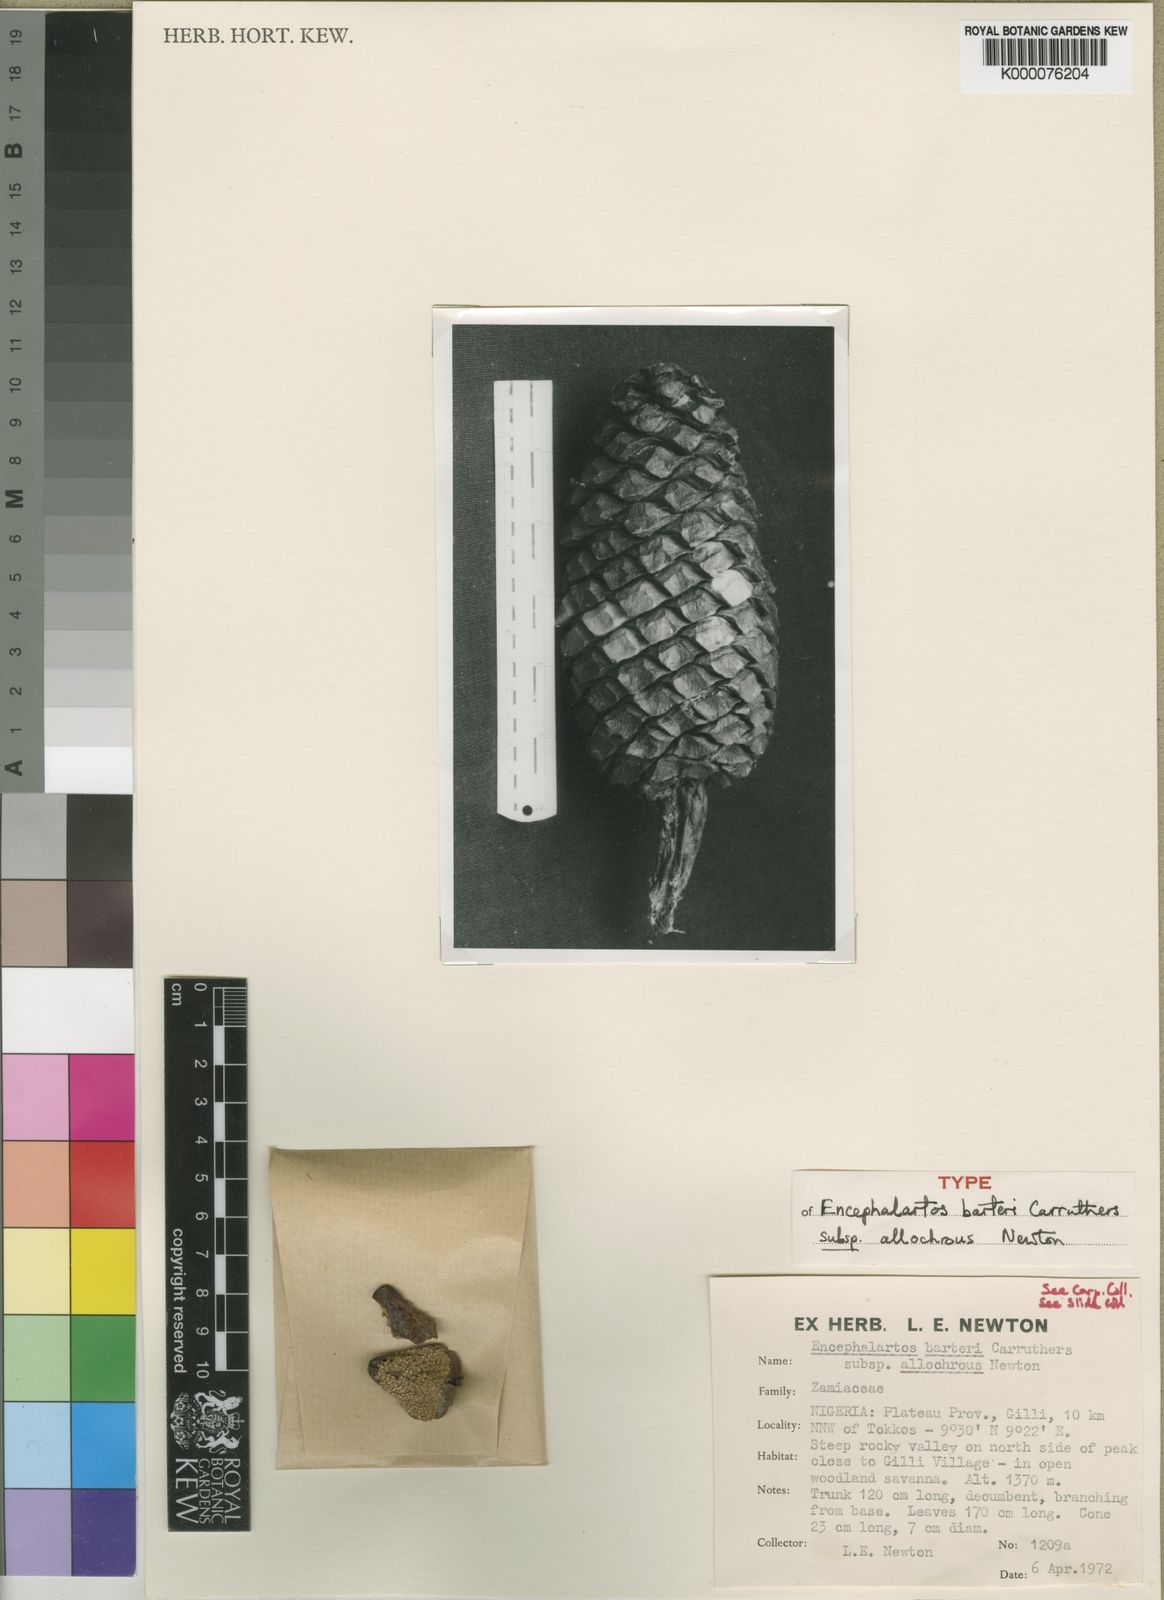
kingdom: Plantae
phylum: Tracheophyta
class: Cycadopsida
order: Cycadales
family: Zamiaceae
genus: Encephalartos
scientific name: Encephalartos barteri
